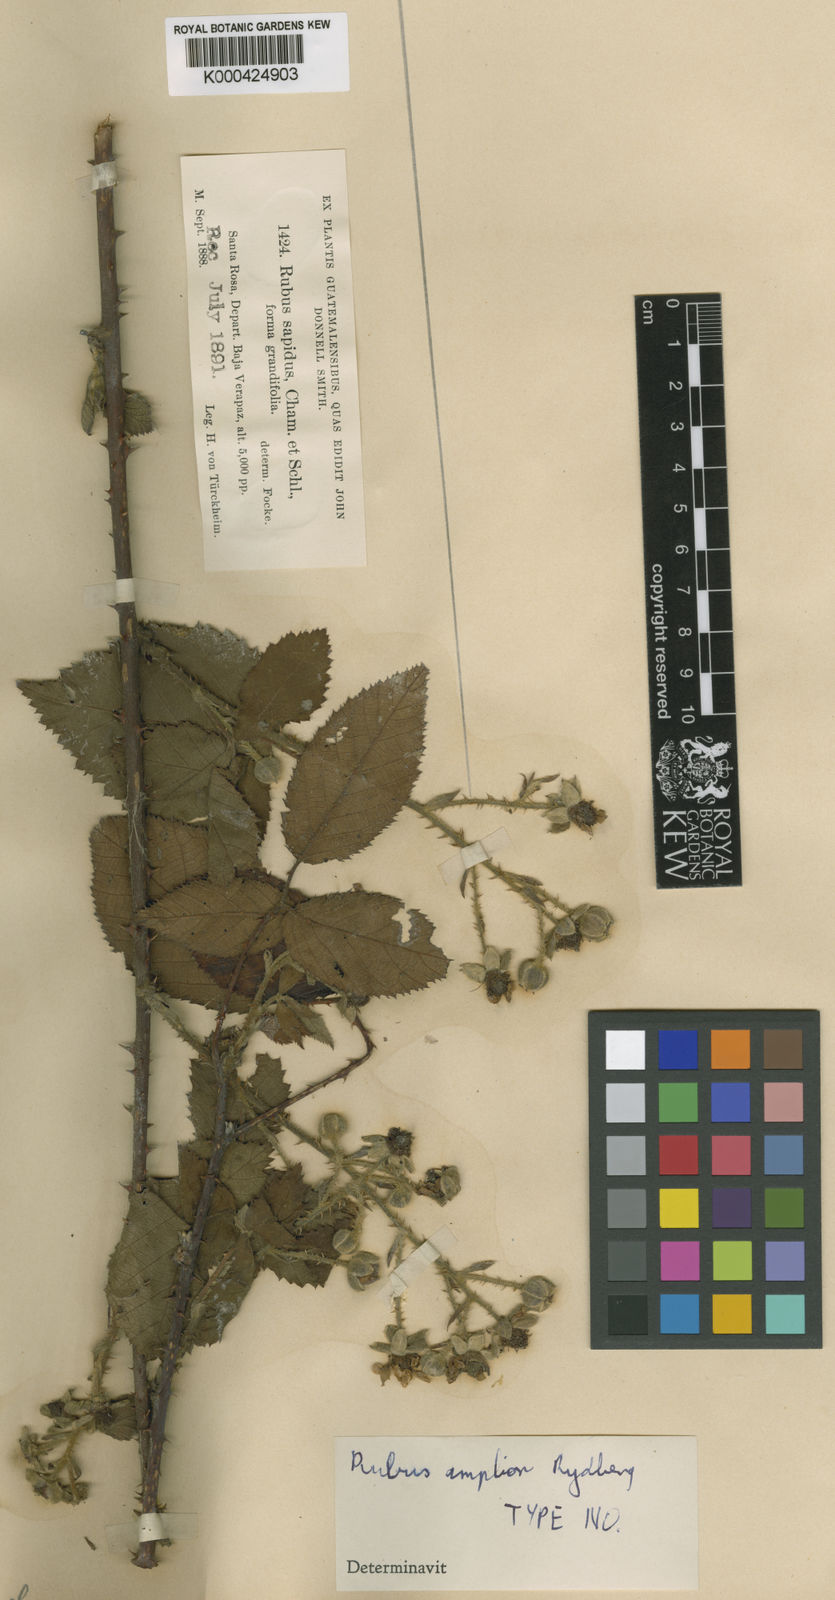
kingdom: Plantae
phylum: Tracheophyta
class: Magnoliopsida
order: Rosales
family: Rosaceae
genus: Rubus
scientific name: Rubus sapidus
